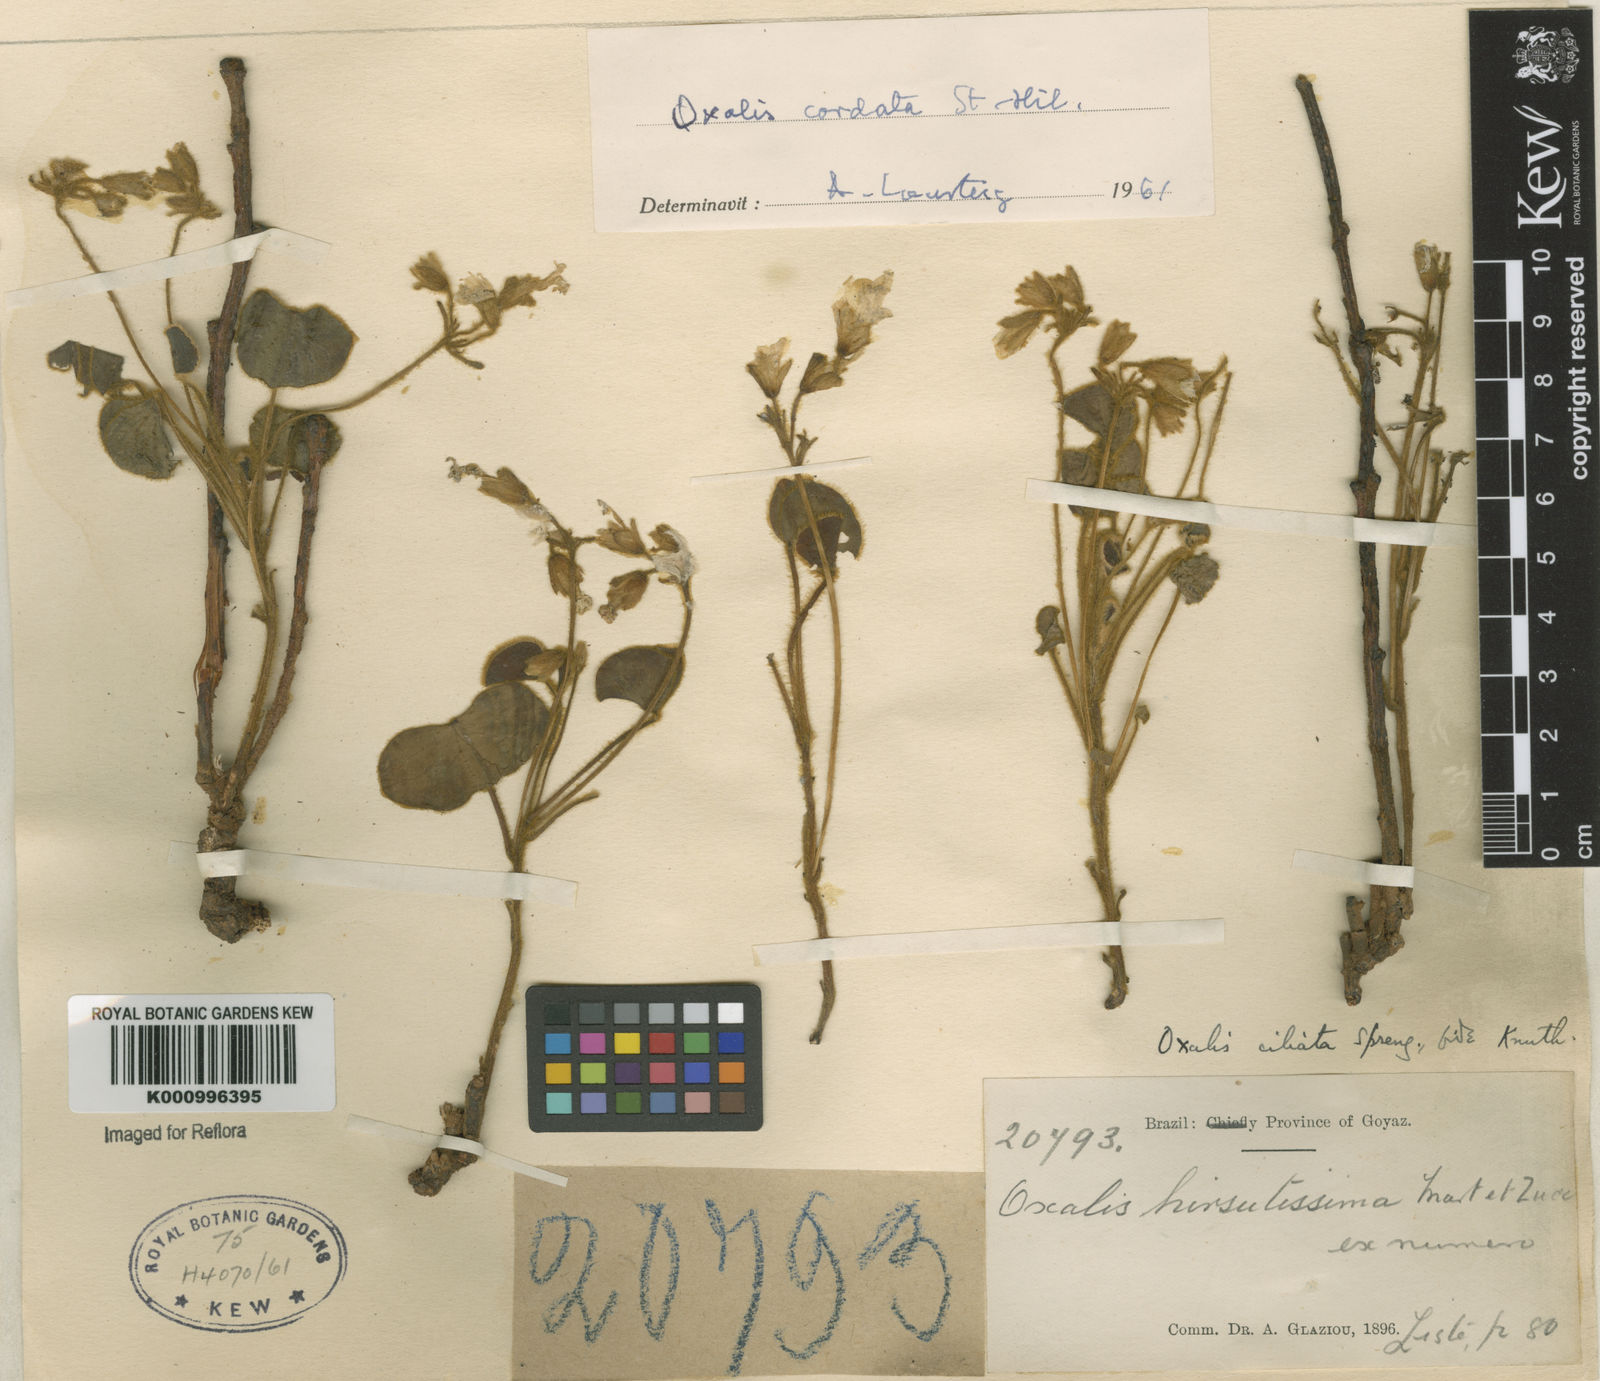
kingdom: Plantae
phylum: Tracheophyta
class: Magnoliopsida
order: Oxalidales
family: Oxalidaceae
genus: Oxalis
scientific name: Oxalis cordata
